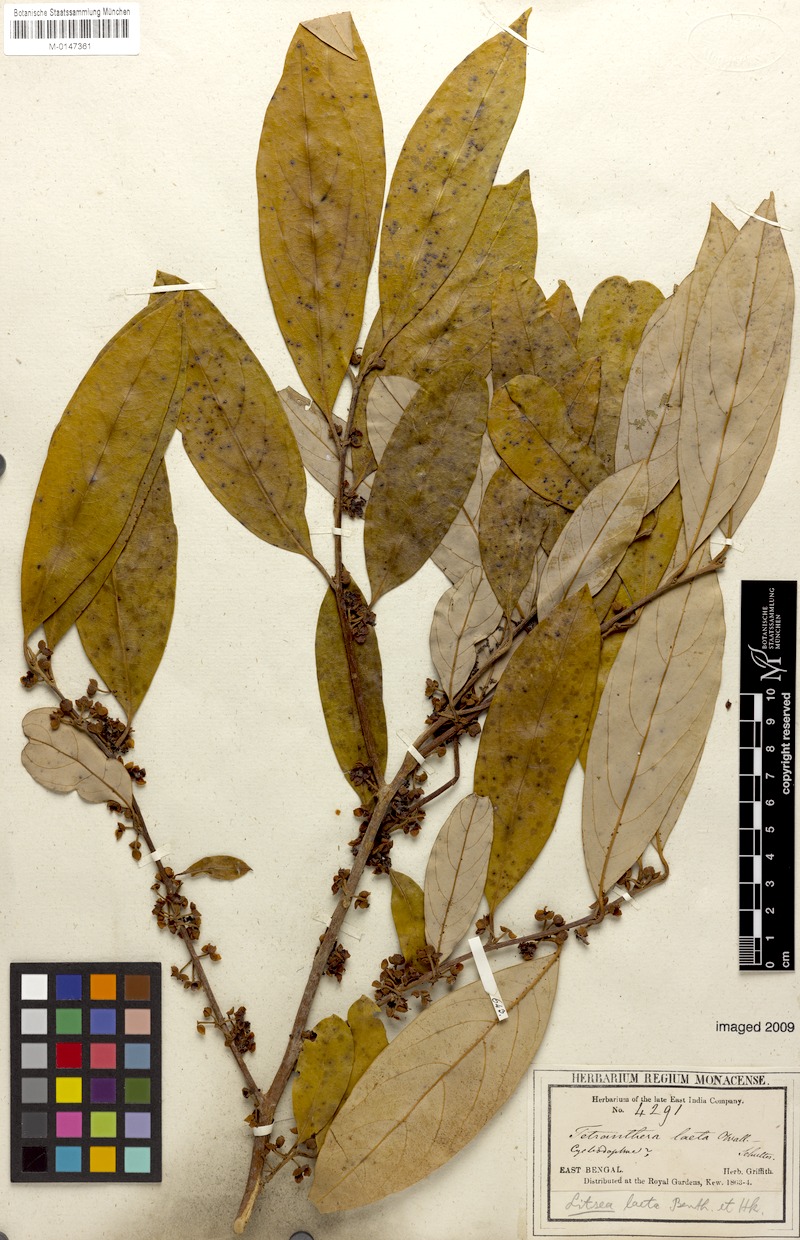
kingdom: Plantae
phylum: Tracheophyta
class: Magnoliopsida
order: Laurales
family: Lauraceae
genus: Litsea
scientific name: Litsea laeta
